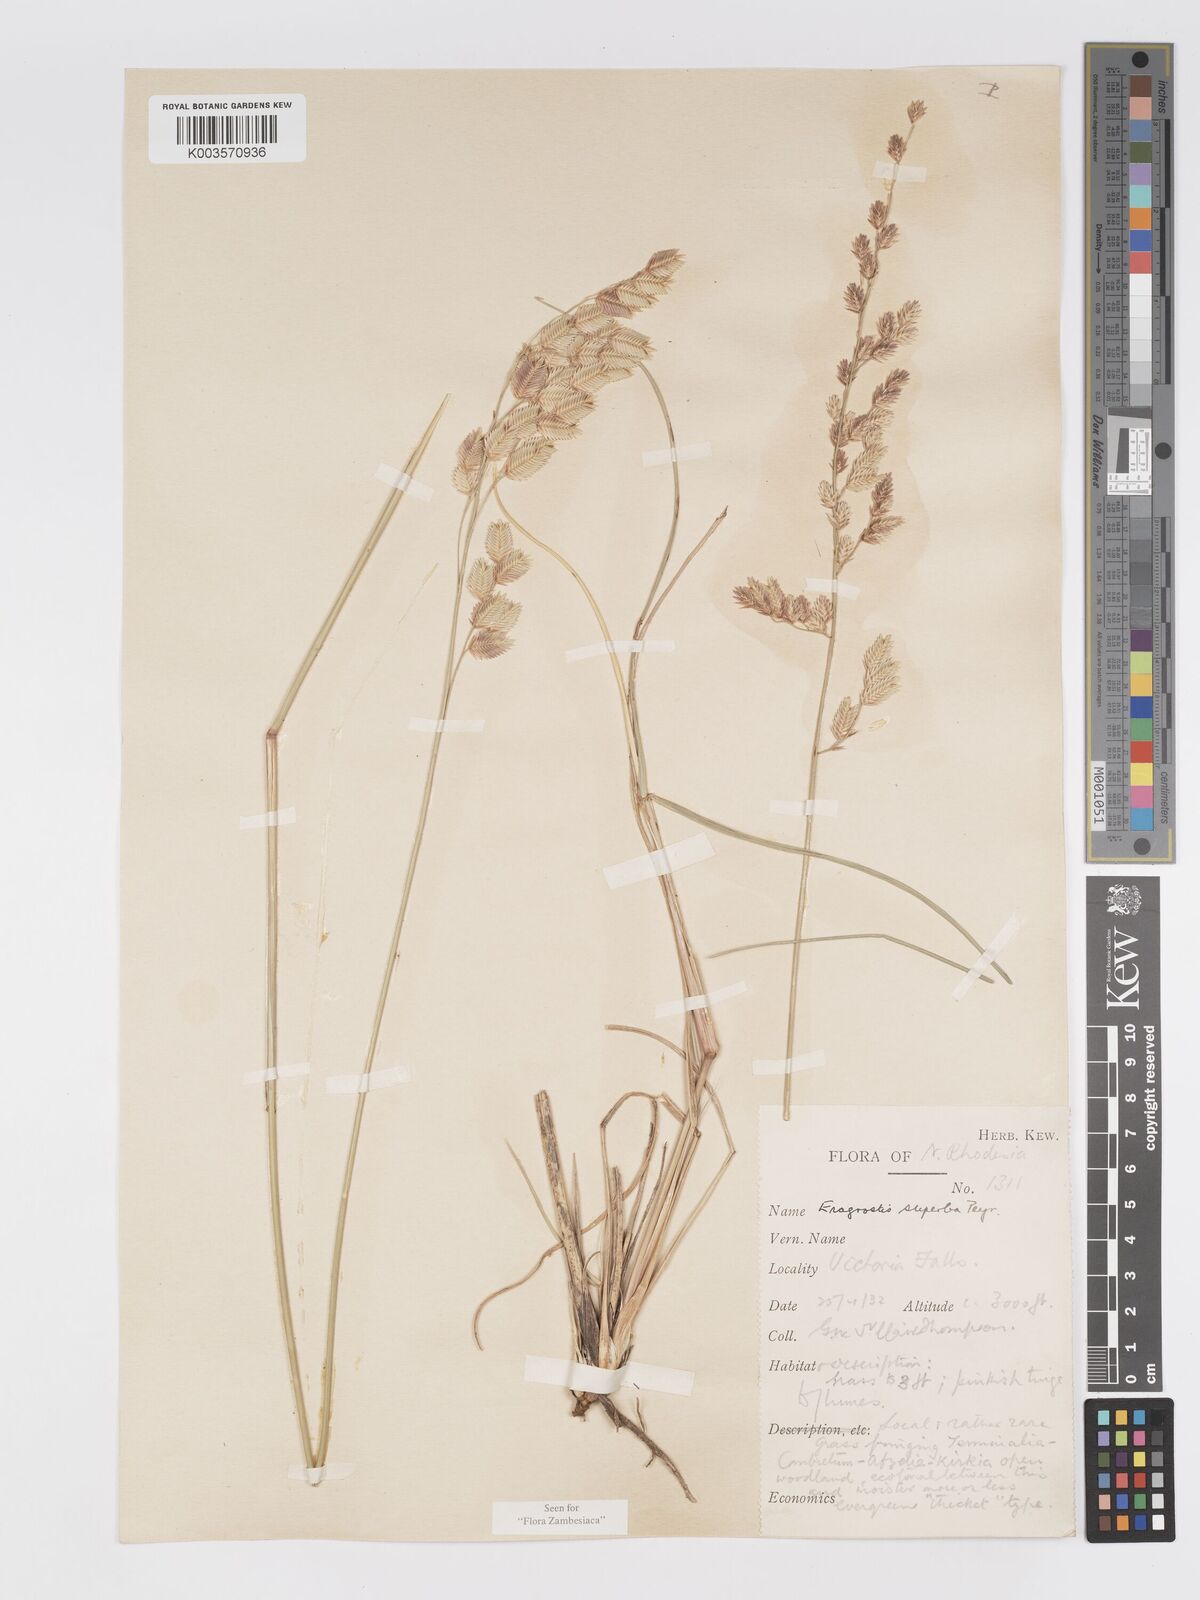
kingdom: Plantae
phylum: Tracheophyta
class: Liliopsida
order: Poales
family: Poaceae
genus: Eragrostis
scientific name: Eragrostis superba
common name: Wilman lovegrass
